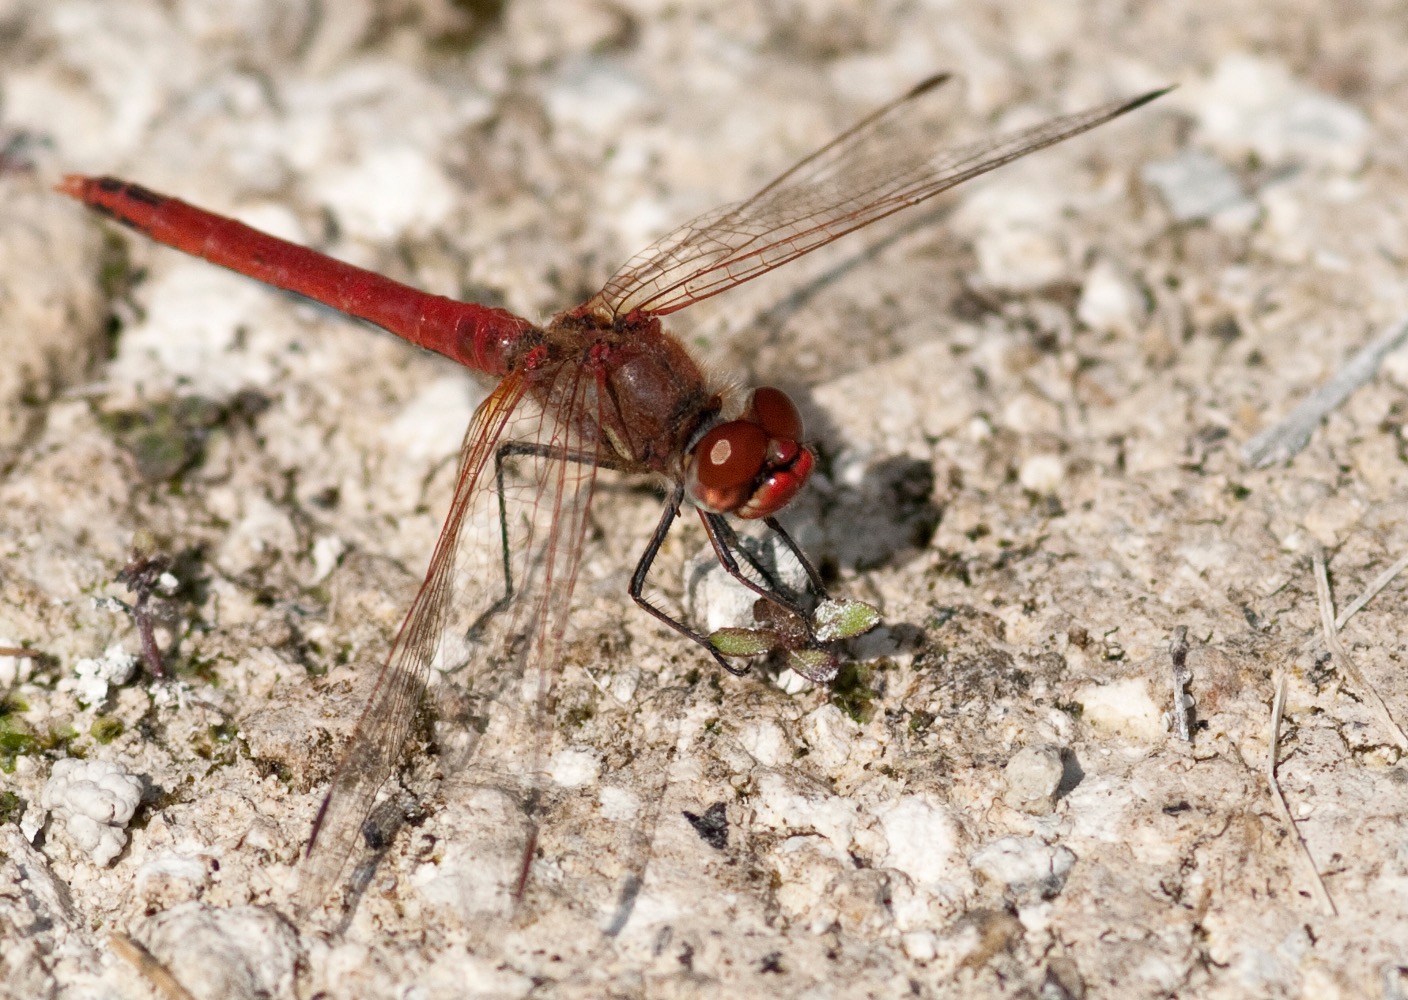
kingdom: Animalia
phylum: Arthropoda
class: Insecta
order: Odonata
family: Libellulidae
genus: Sympetrum
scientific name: Sympetrum fonscolombii
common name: Rødåret hedelibel
